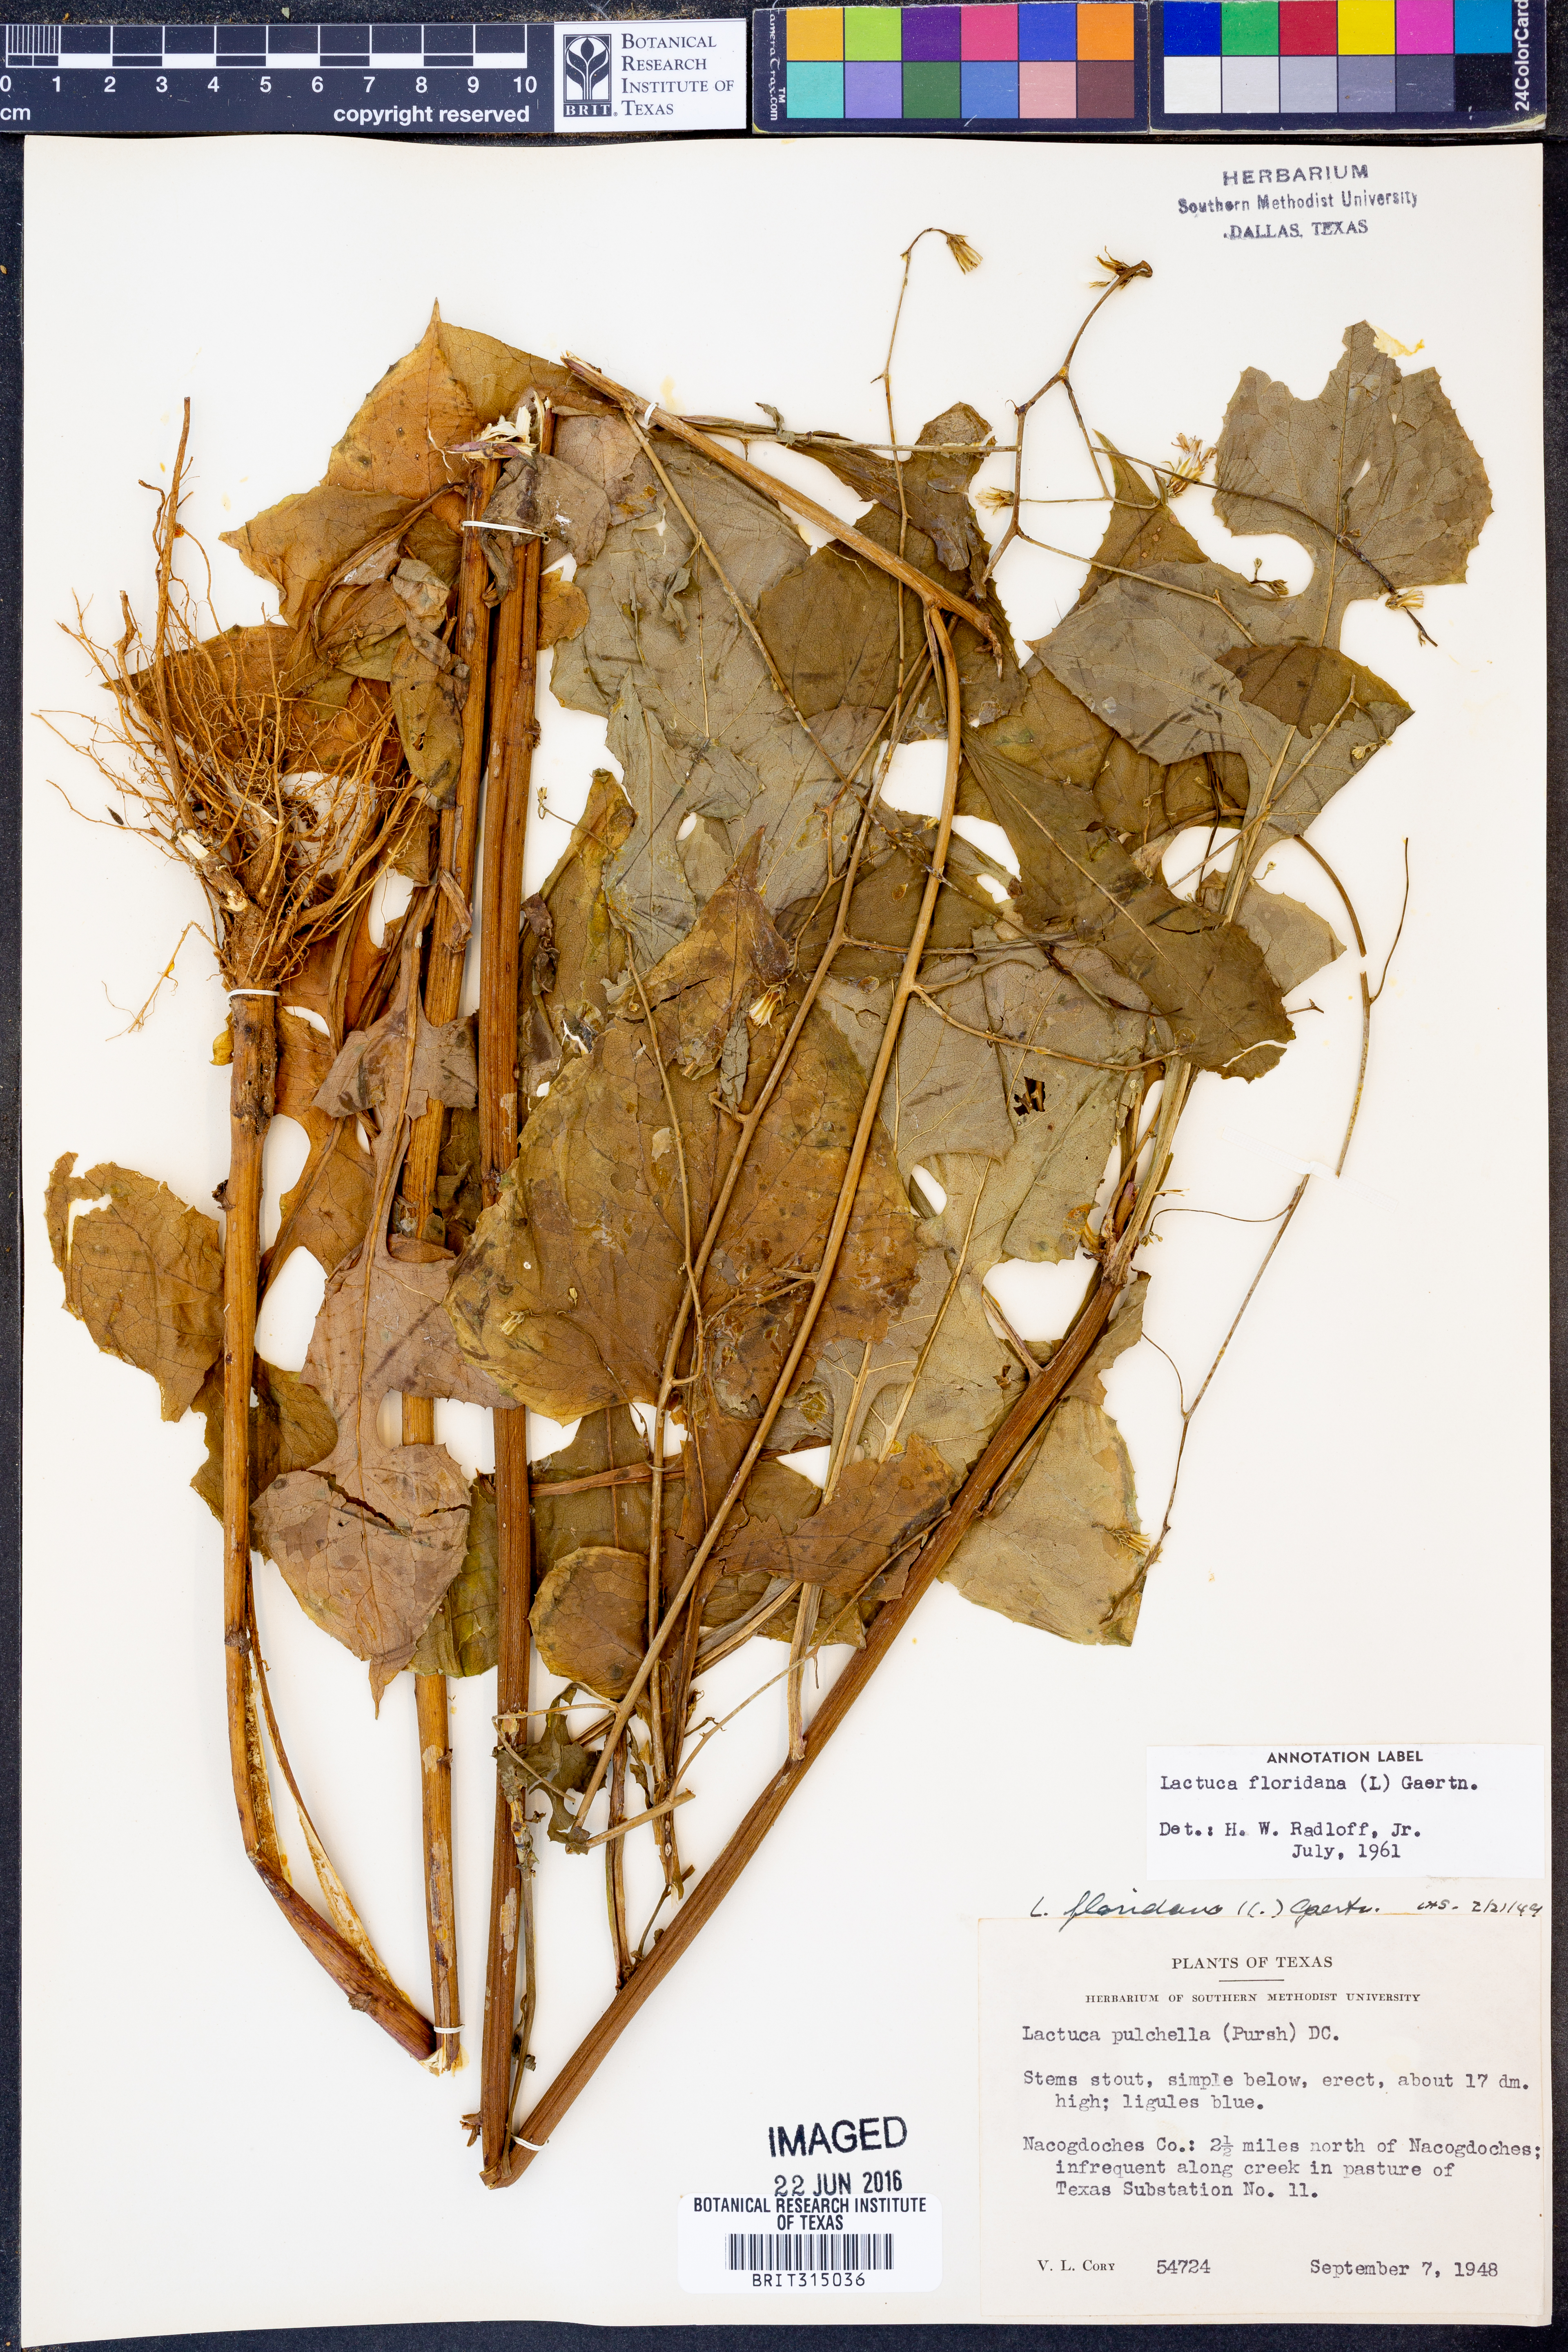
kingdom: Plantae
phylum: Tracheophyta
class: Magnoliopsida
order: Asterales
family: Asteraceae
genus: Lactuca
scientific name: Lactuca floridana
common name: Woodland lettuce
